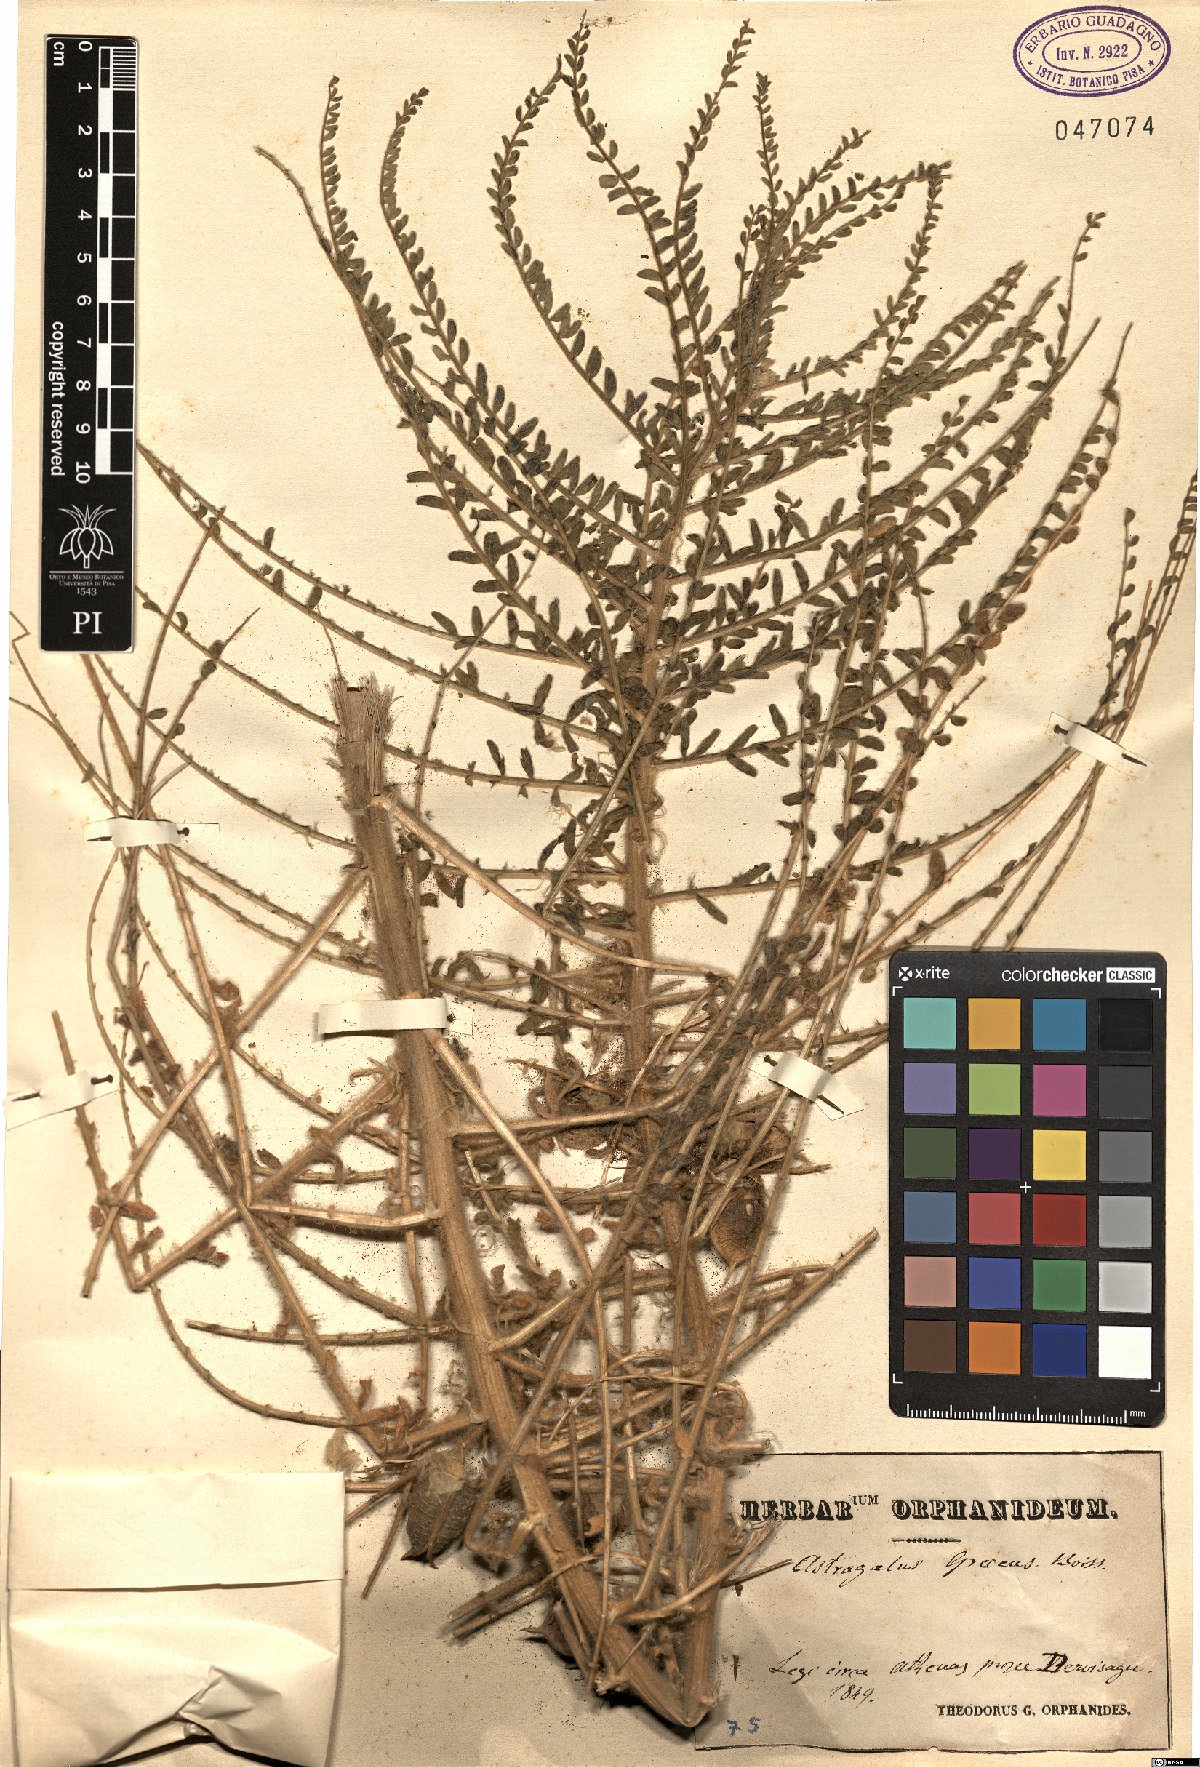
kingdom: Plantae
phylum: Tracheophyta
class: Magnoliopsida
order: Fabales
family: Fabaceae
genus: Astragalus
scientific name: Astragalus graecus
